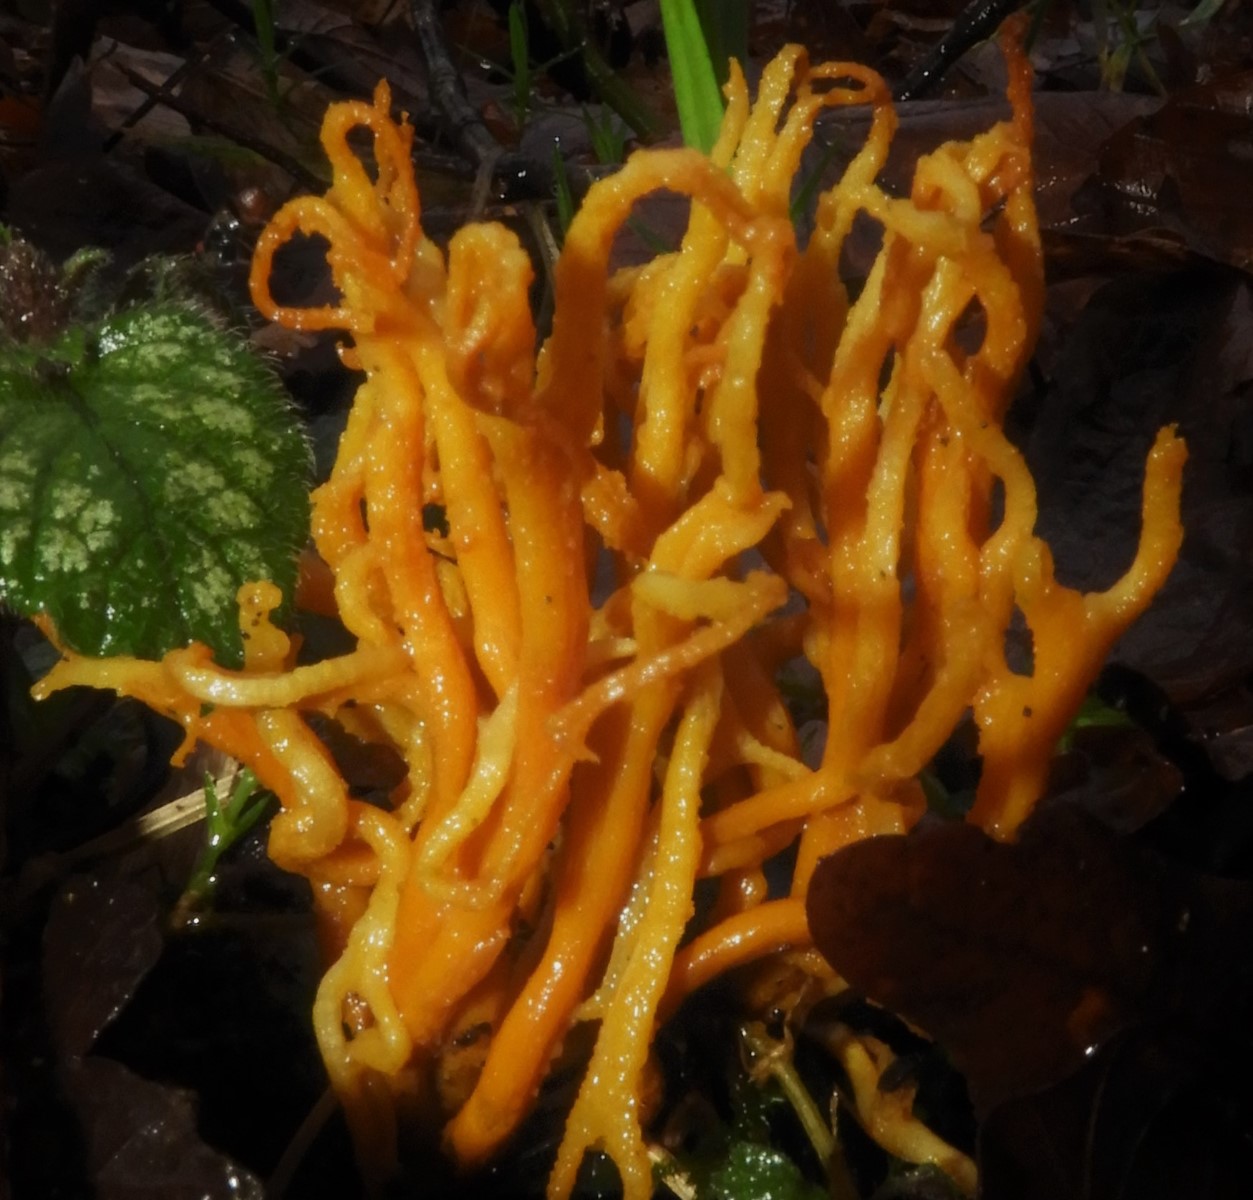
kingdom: Fungi
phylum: Basidiomycota
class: Agaricomycetes
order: Agaricales
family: Clavariaceae
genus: Clavulinopsis
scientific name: Clavulinopsis corniculata
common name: eng-køllesvamp
